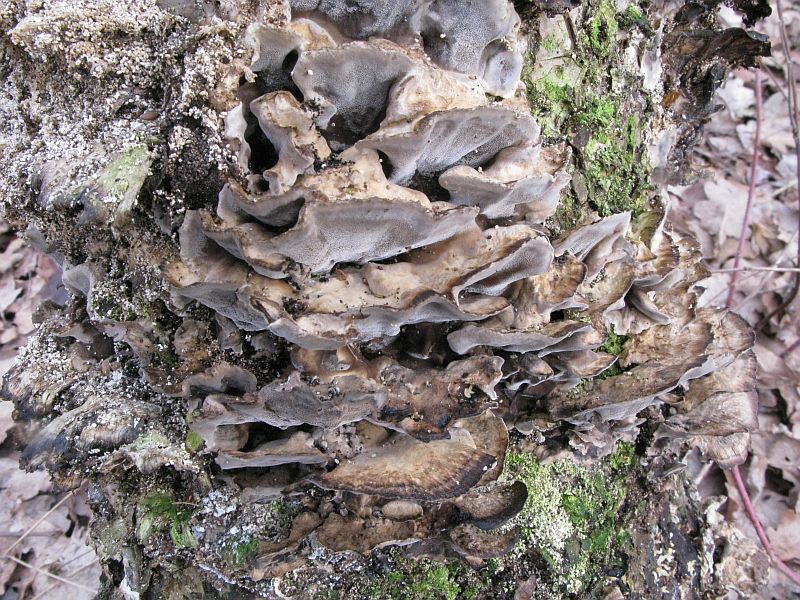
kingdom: Fungi
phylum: Basidiomycota
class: Agaricomycetes
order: Polyporales
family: Phanerochaetaceae
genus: Bjerkandera
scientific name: Bjerkandera adusta
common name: sveden sodporesvamp
